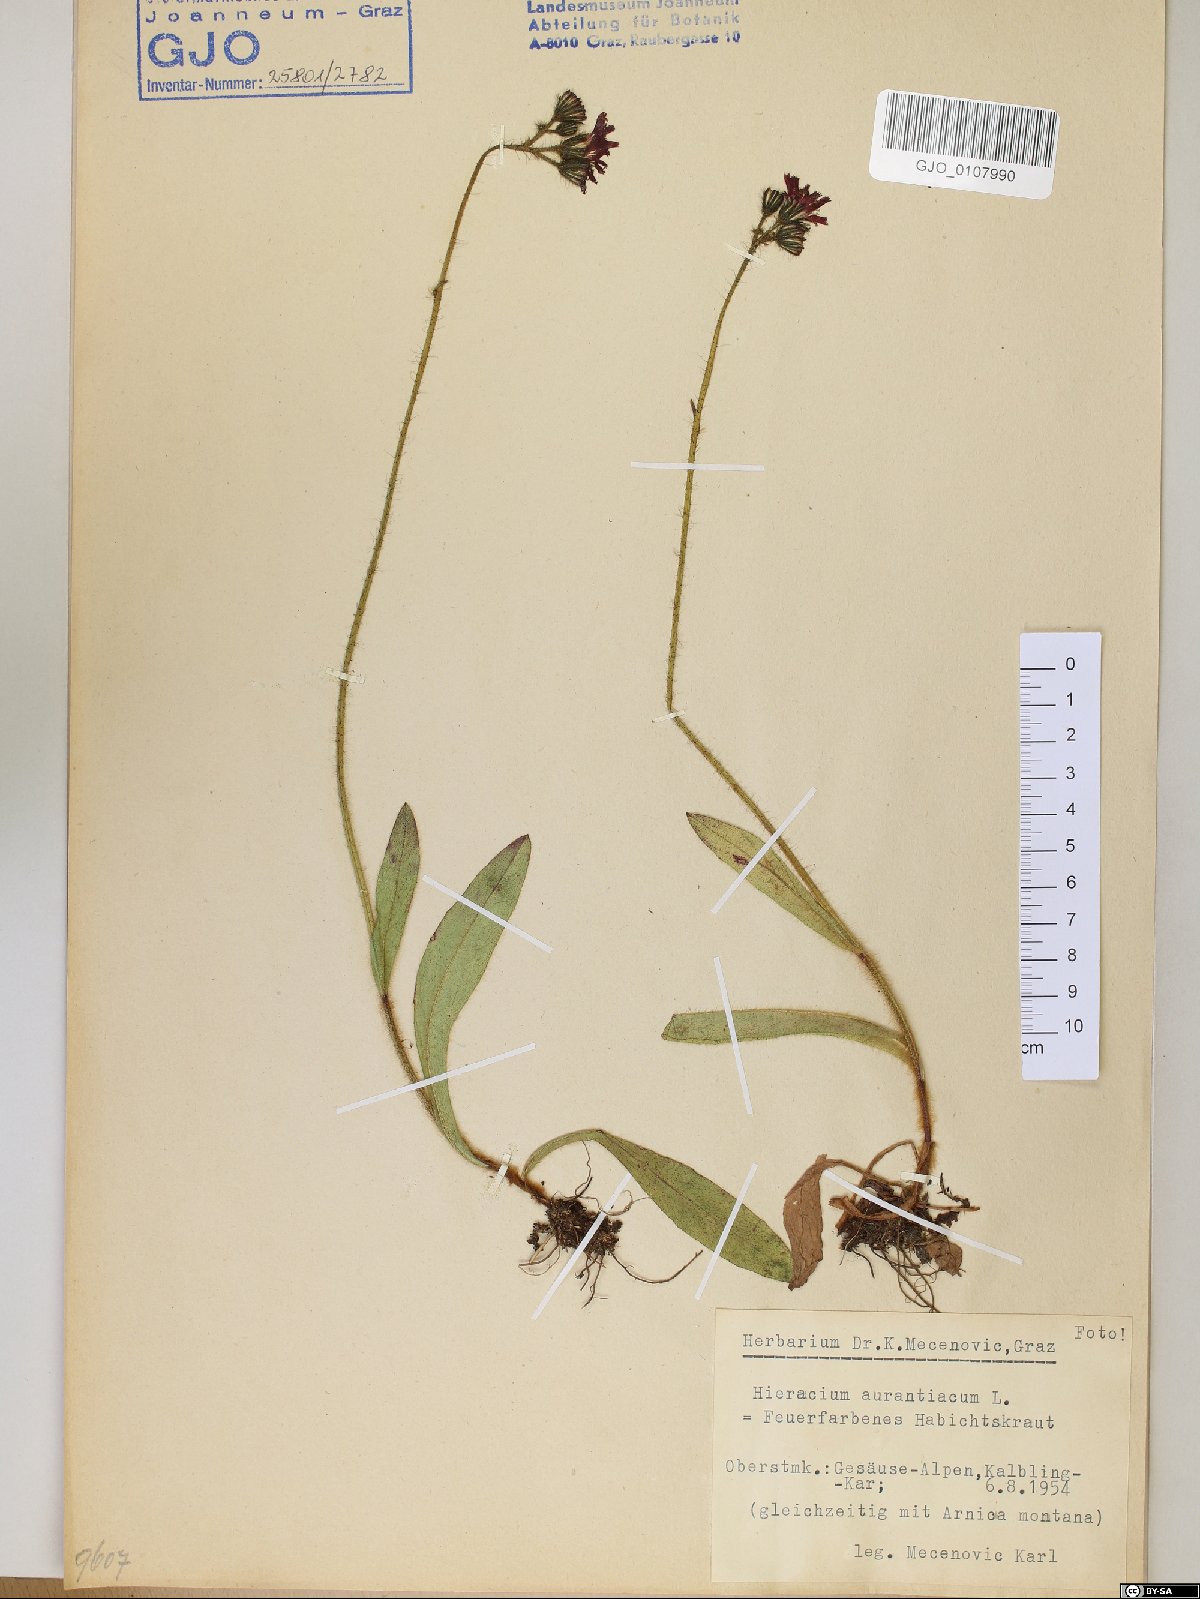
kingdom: Plantae
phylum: Tracheophyta
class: Magnoliopsida
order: Asterales
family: Asteraceae
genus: Pilosella
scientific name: Pilosella aurantiaca
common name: Fox-and-cubs
